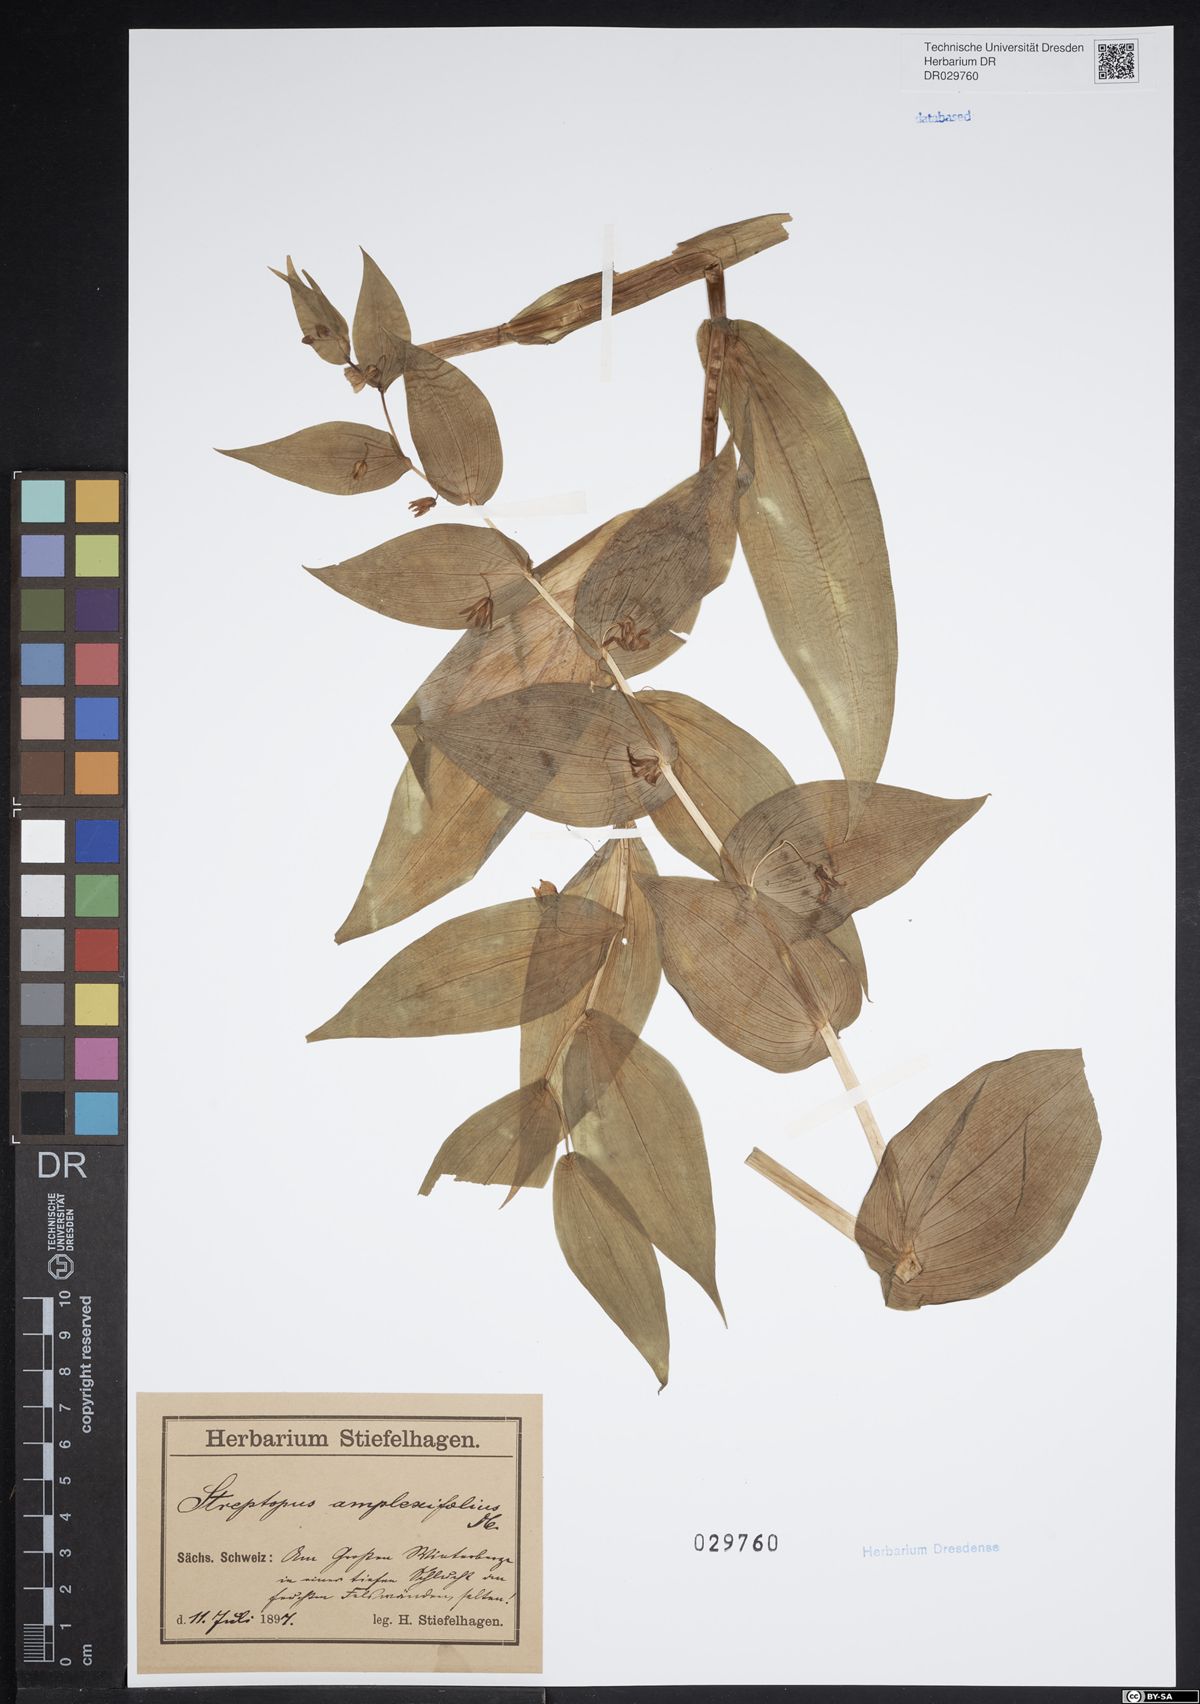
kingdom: Plantae
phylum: Tracheophyta
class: Liliopsida
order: Liliales
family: Liliaceae
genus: Streptopus
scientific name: Streptopus amplexifolius
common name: Clasp twisted stalk
